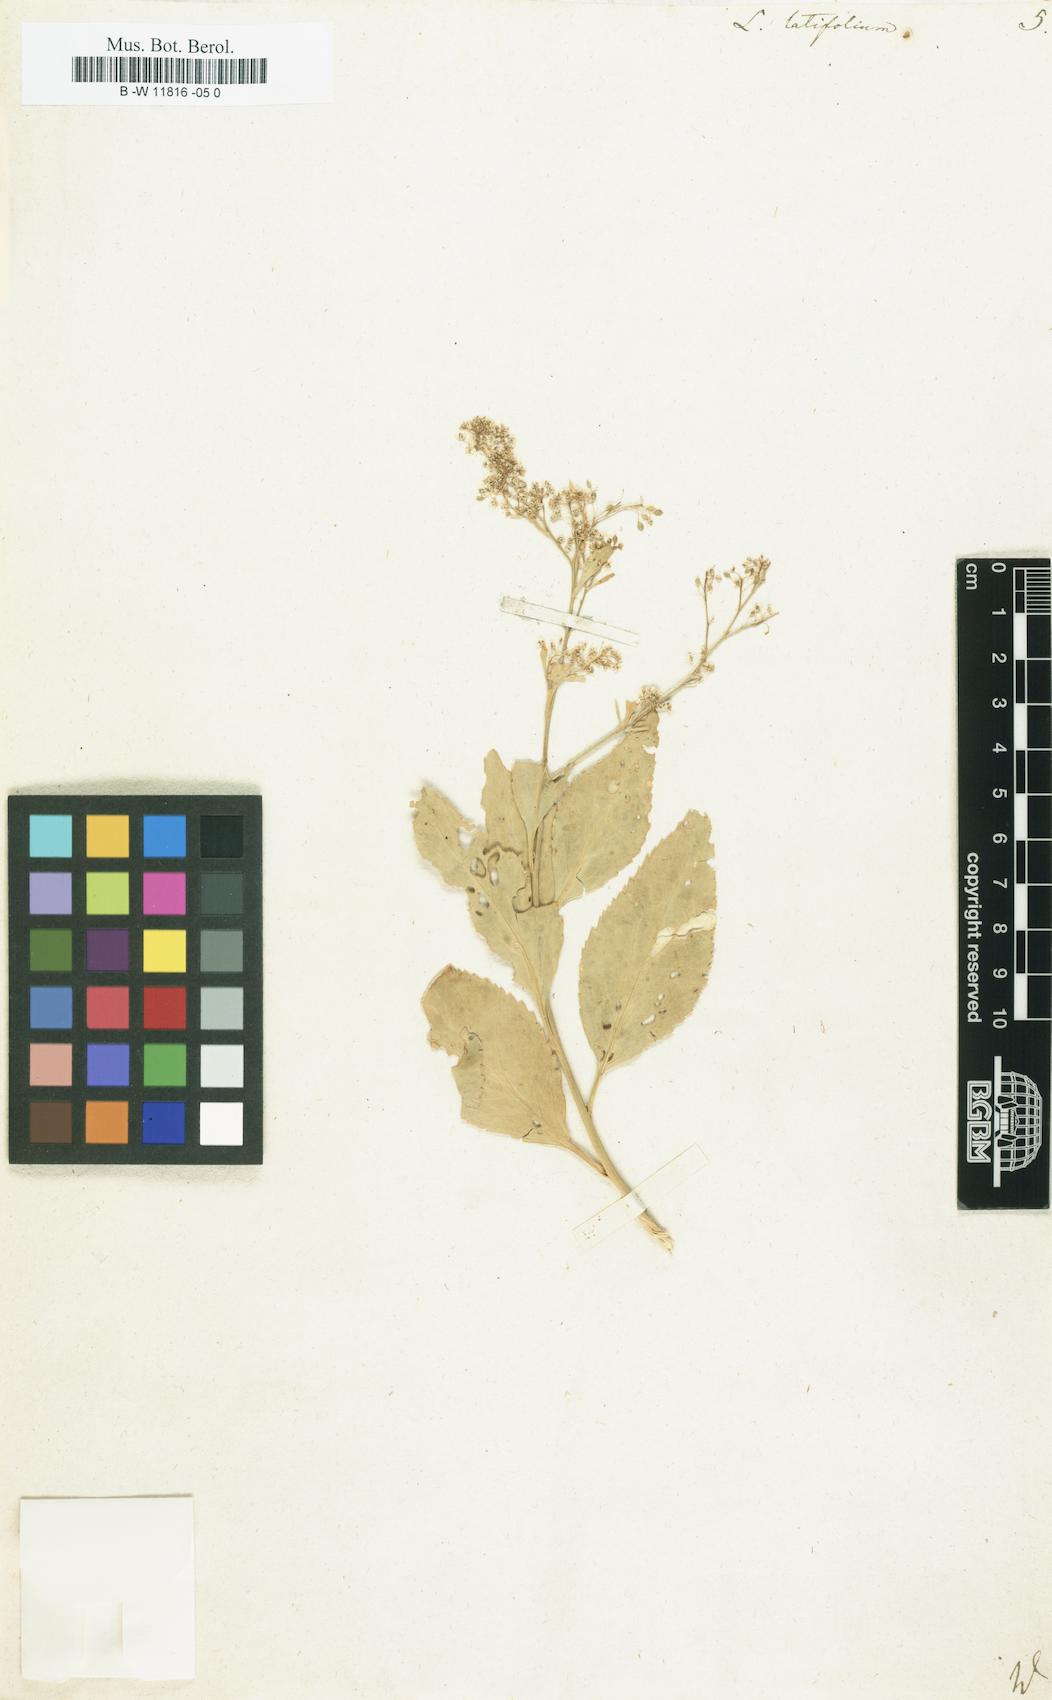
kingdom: Plantae
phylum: Tracheophyta
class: Magnoliopsida
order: Brassicales
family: Brassicaceae
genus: Lepidium
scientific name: Lepidium latifolium
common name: Dittander
